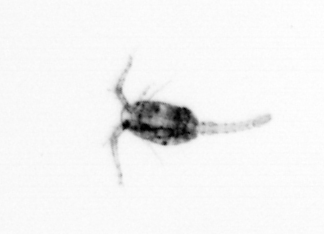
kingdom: Animalia
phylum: Arthropoda
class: Copepoda
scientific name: Copepoda
